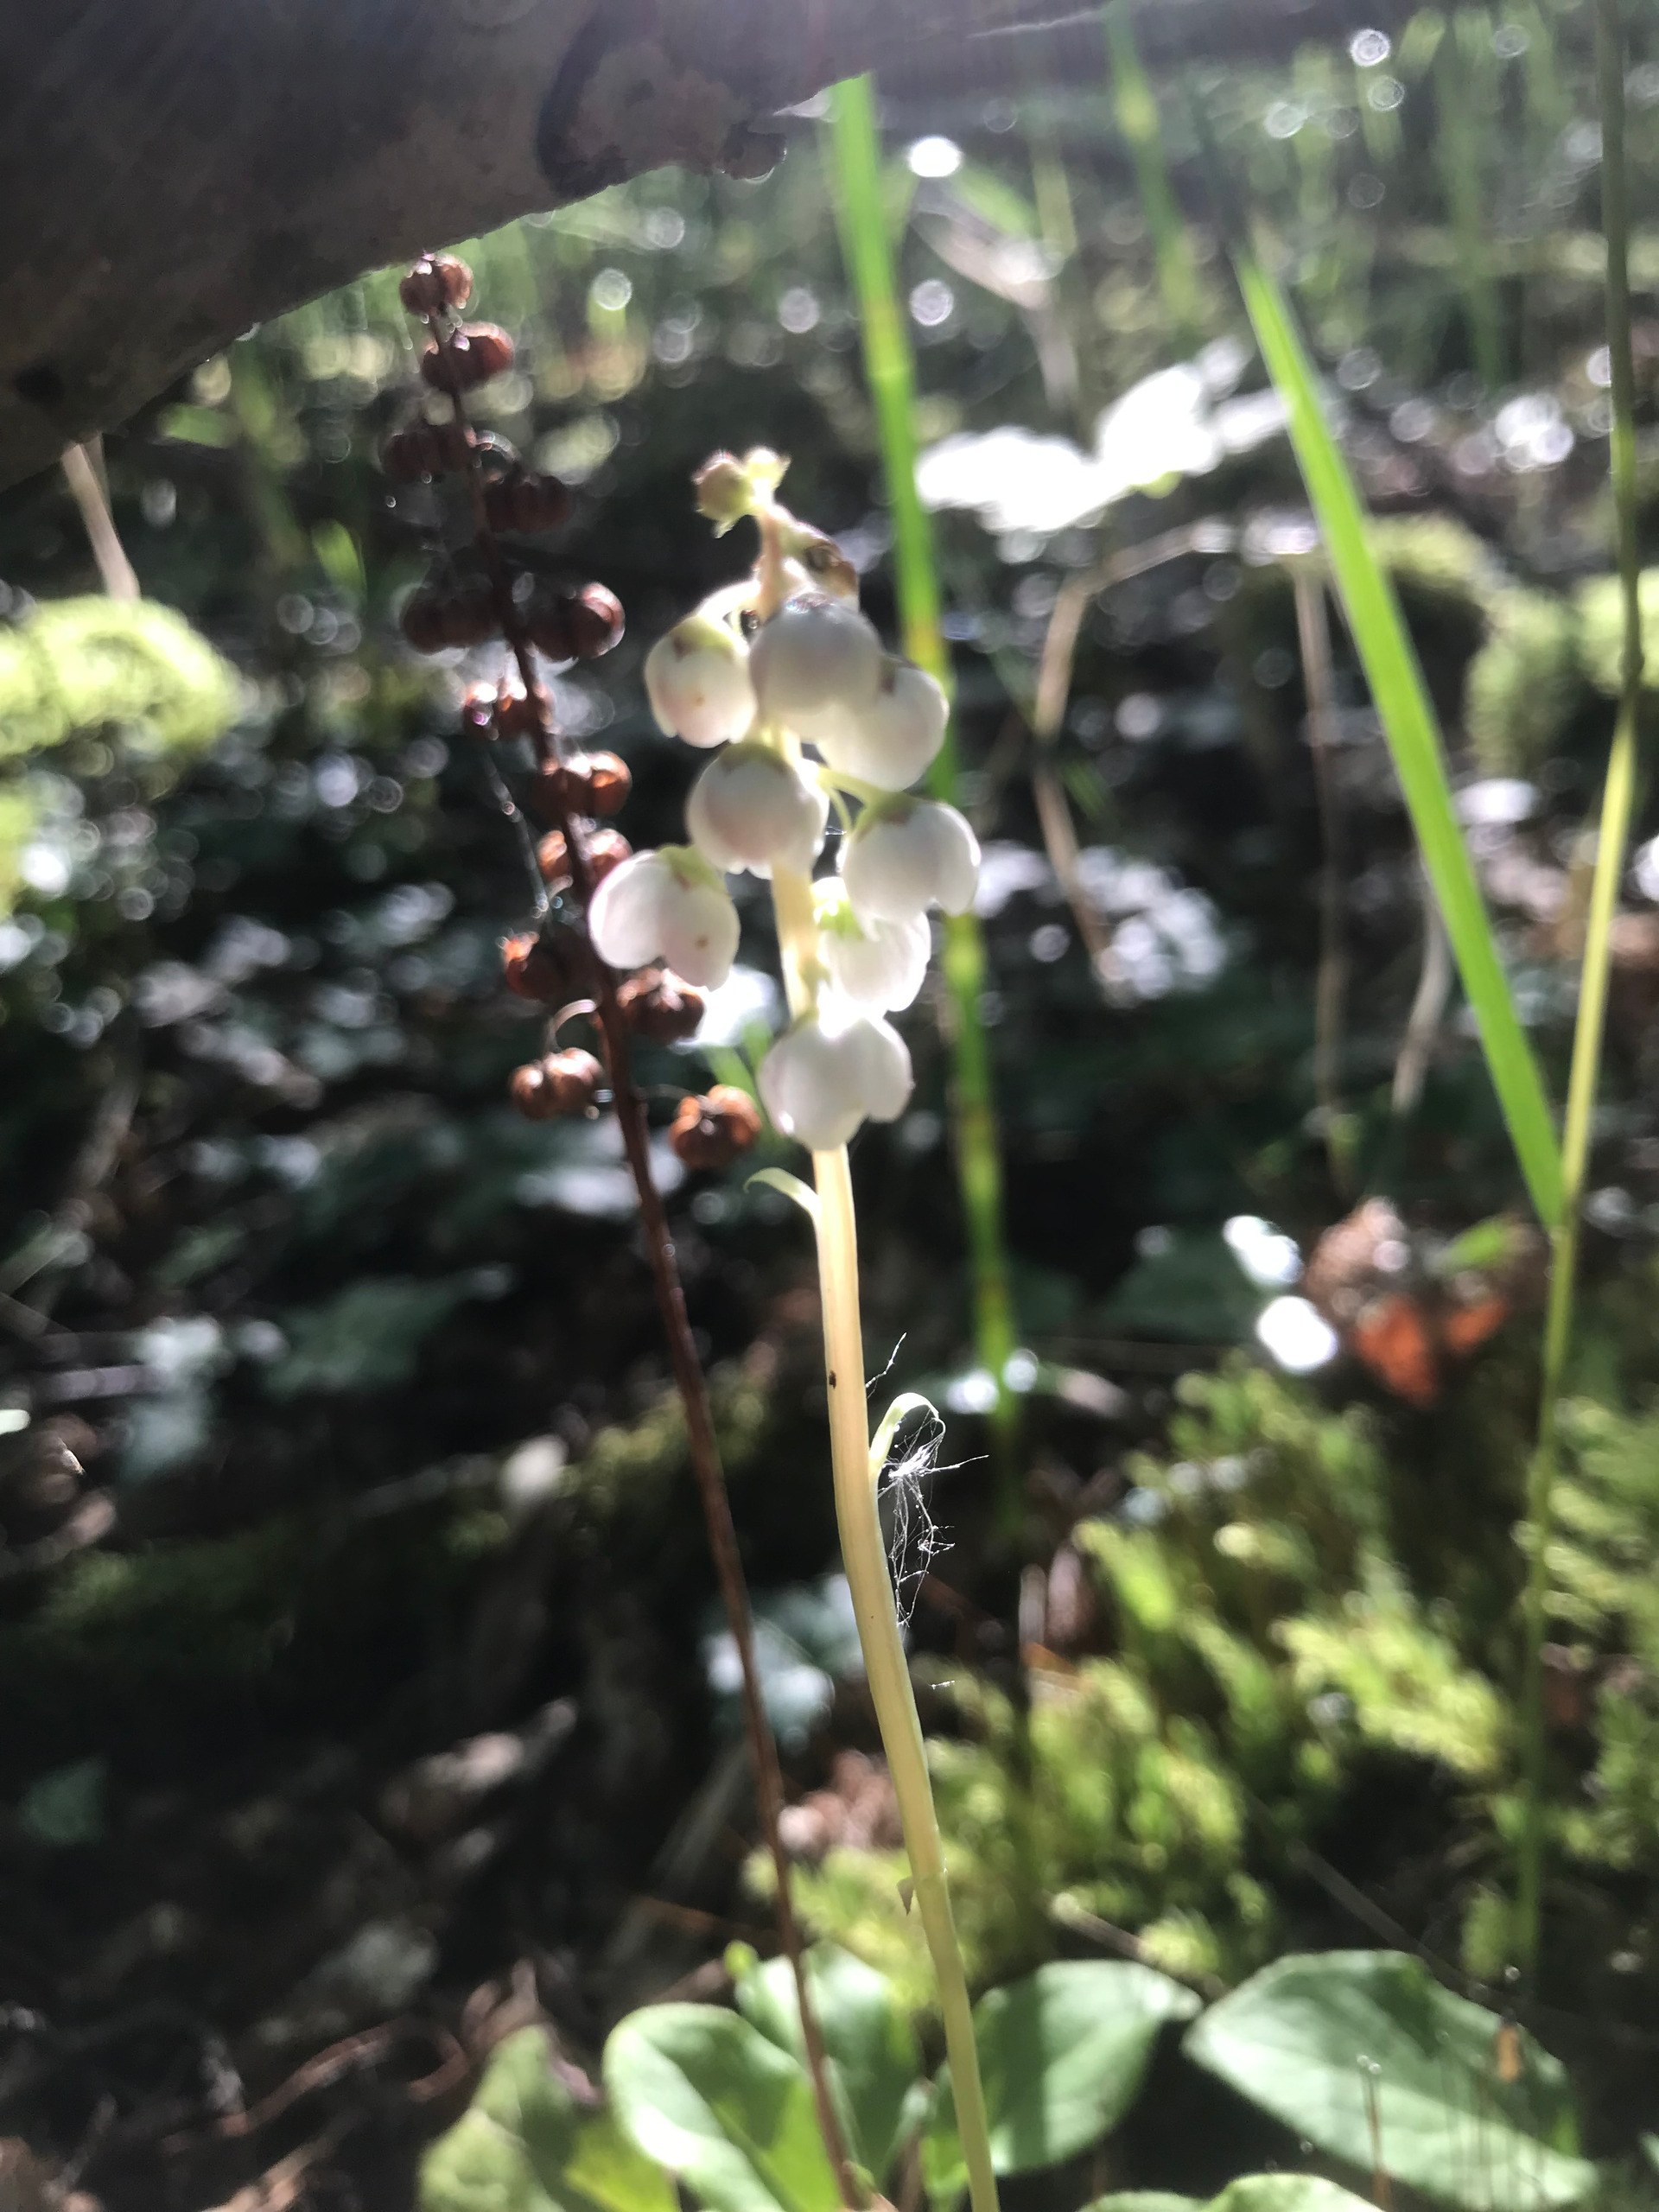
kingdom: Plantae
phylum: Tracheophyta
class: Magnoliopsida
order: Ericales
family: Ericaceae
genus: Pyrola
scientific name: Pyrola minor
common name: Liden vintergrøn
